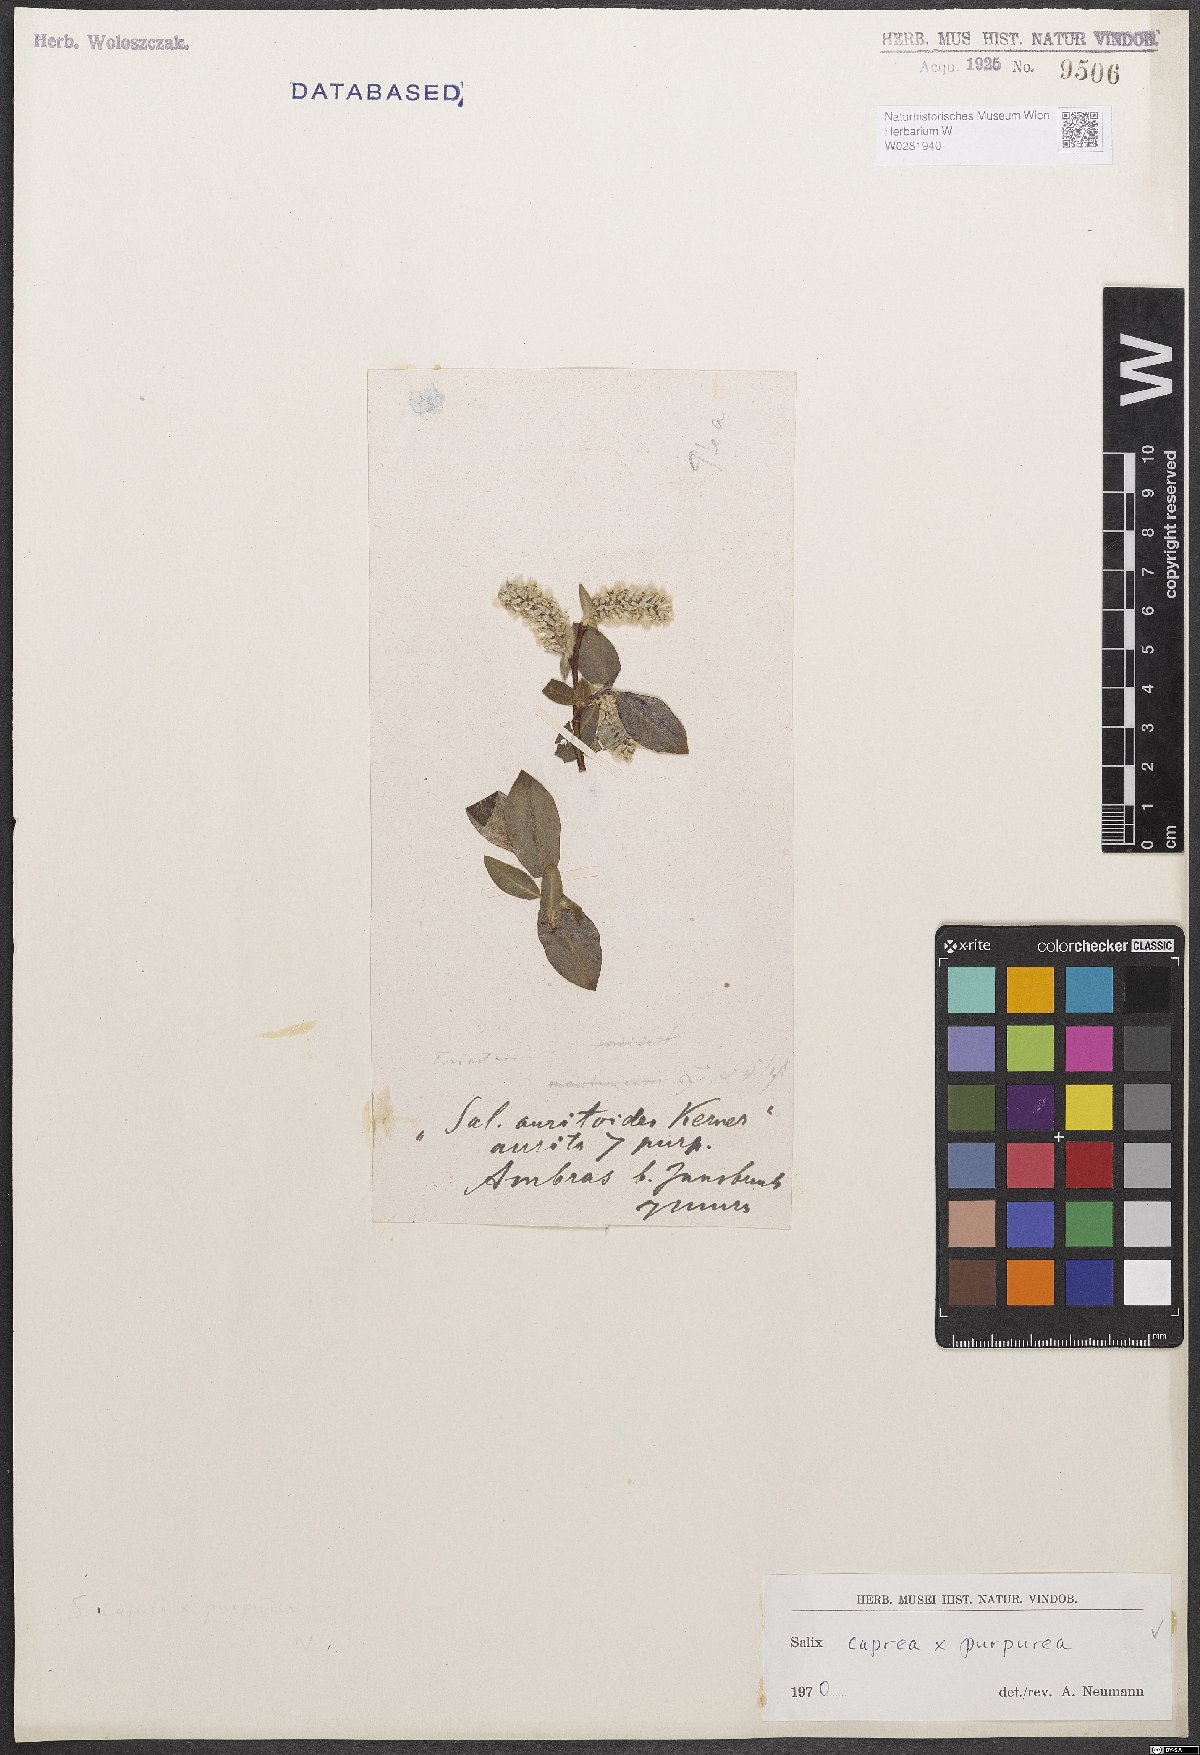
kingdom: Plantae
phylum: Tracheophyta
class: Magnoliopsida
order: Malpighiales
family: Salicaceae
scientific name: Salicaceae
